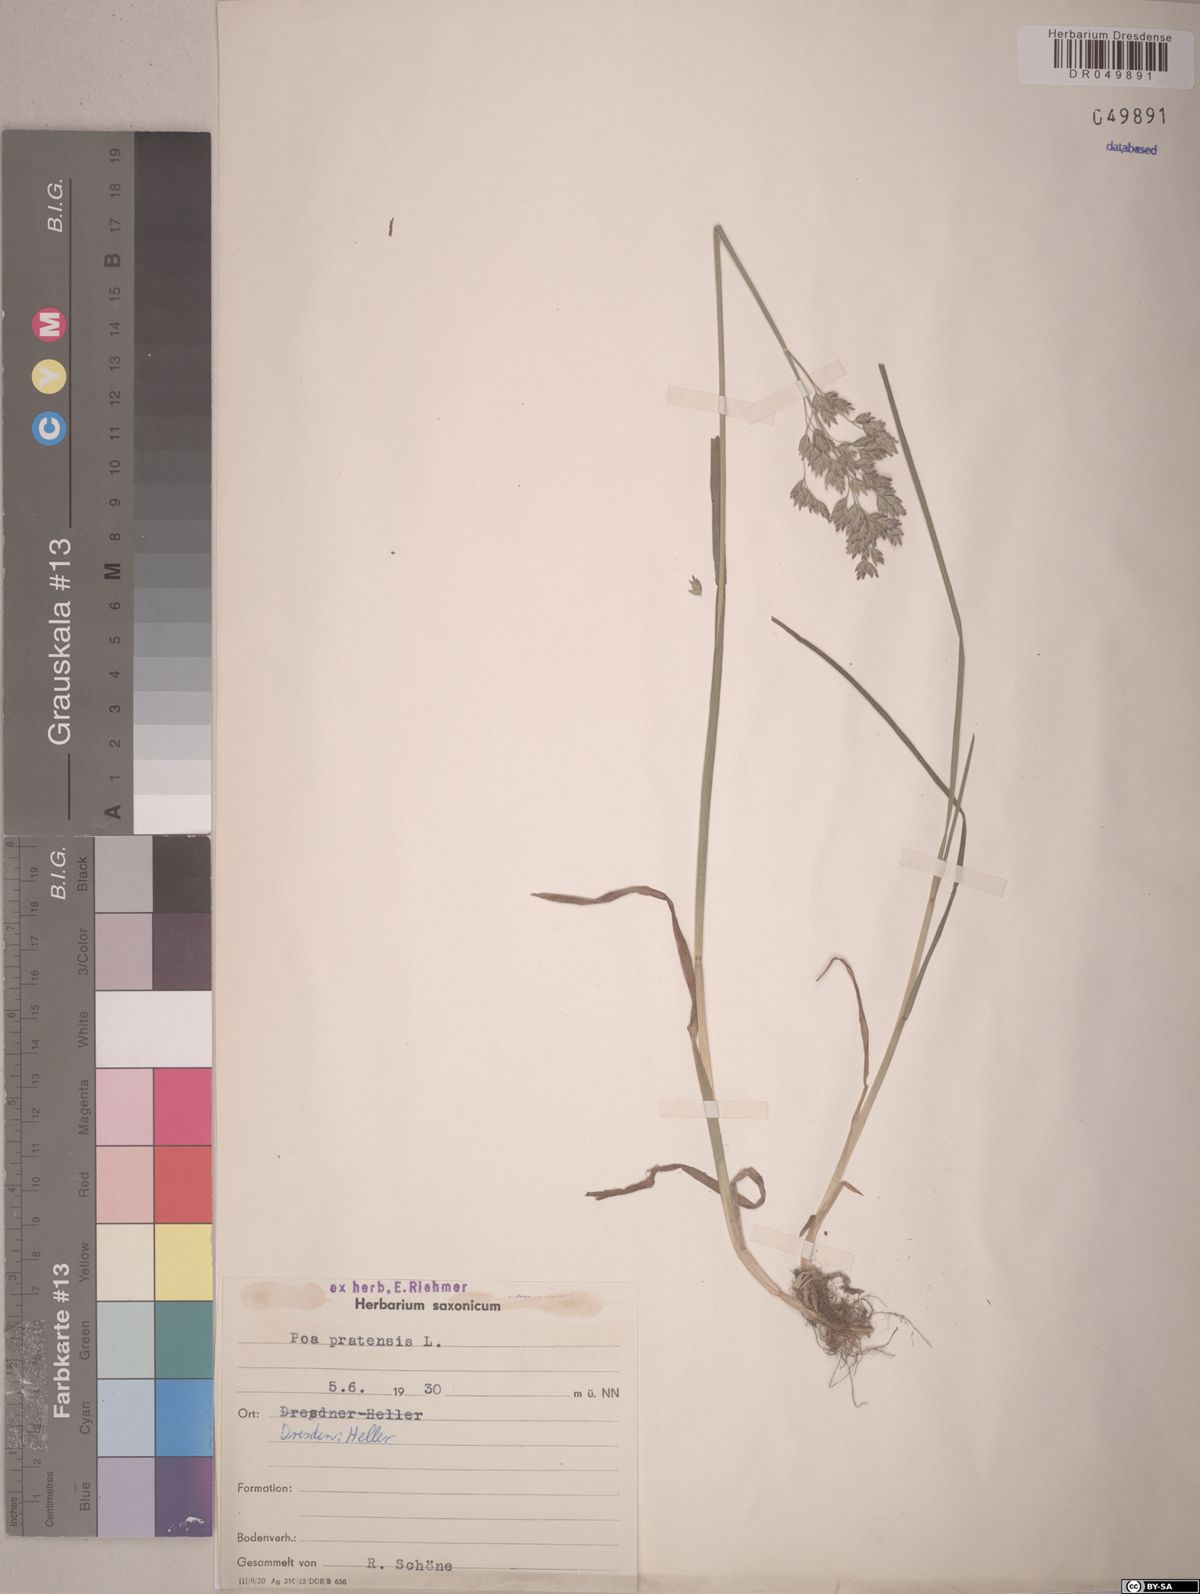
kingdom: Plantae
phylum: Tracheophyta
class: Liliopsida
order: Poales
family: Poaceae
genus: Poa
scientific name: Poa pratensis
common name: Kentucky bluegrass
